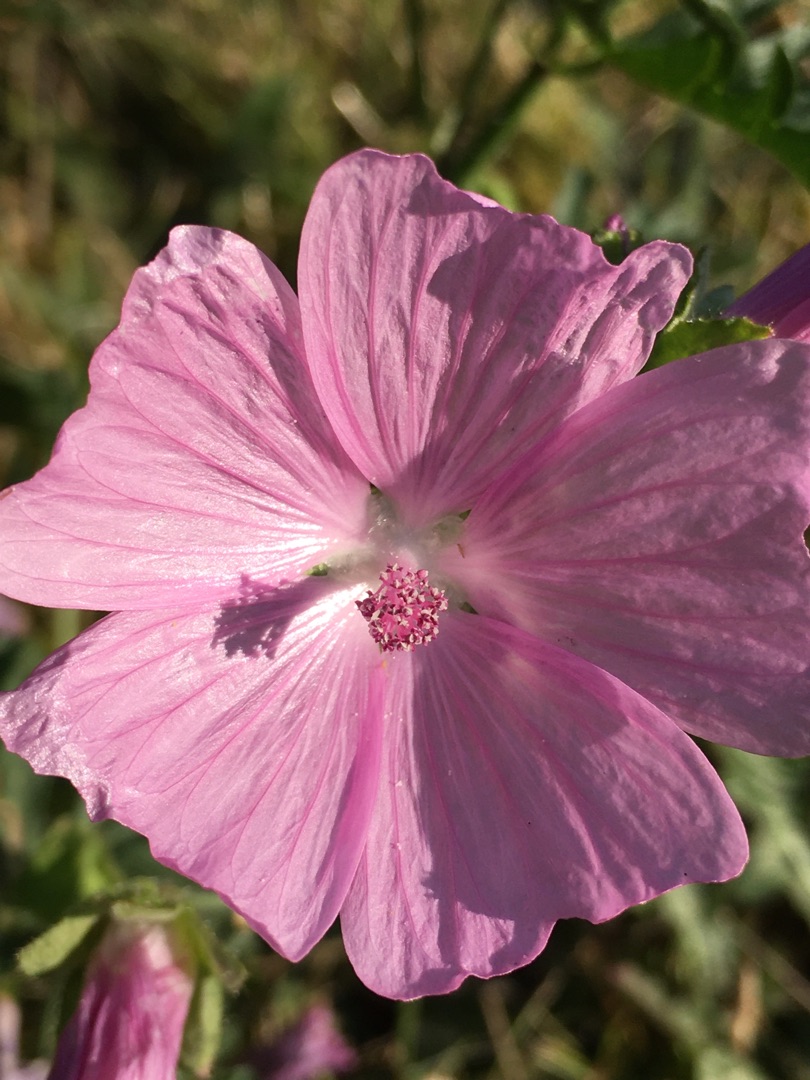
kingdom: Plantae
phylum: Tracheophyta
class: Magnoliopsida
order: Malvales
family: Malvaceae
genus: Malva
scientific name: Malva
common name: Katostslægten
